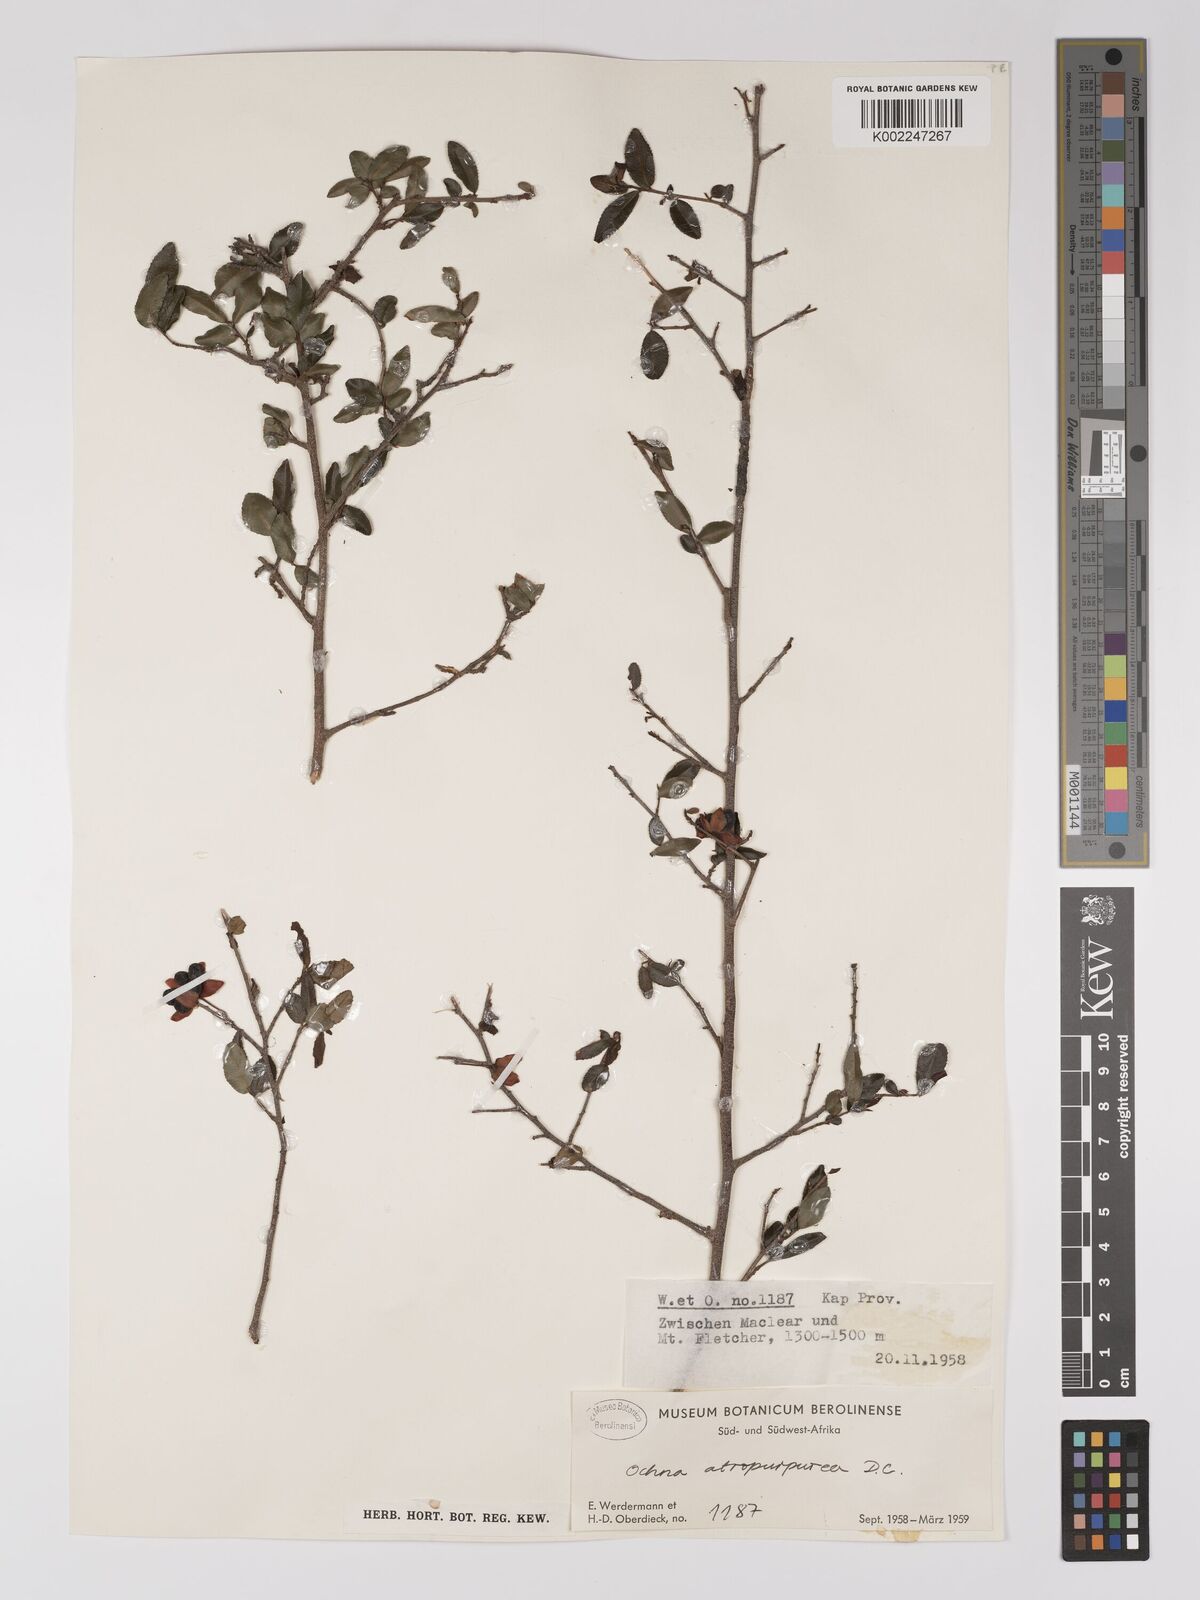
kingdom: Plantae
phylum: Tracheophyta
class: Magnoliopsida
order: Malpighiales
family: Ochnaceae
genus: Ochna
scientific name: Ochna gamostigmata
